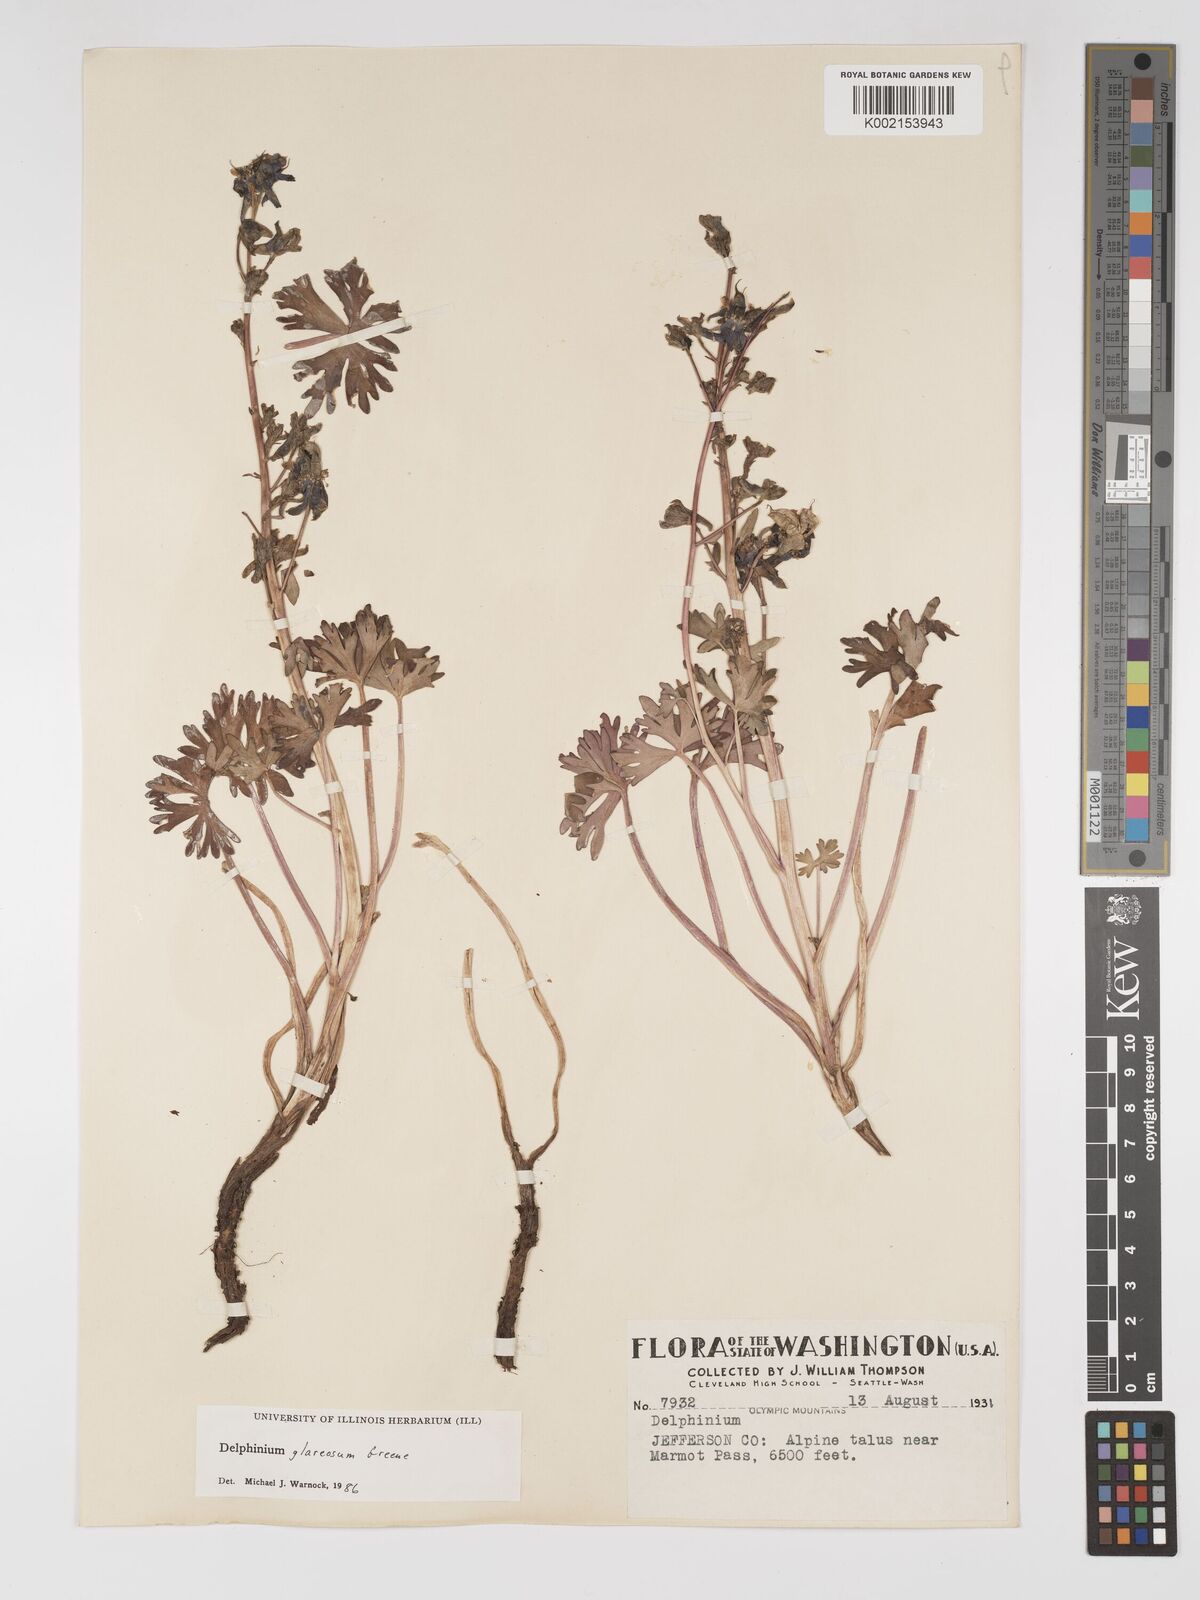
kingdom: Plantae
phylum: Tracheophyta
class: Magnoliopsida
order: Ranunculales
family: Ranunculaceae
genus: Delphinium
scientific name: Delphinium glareosum
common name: Olympic mountain larkspur
